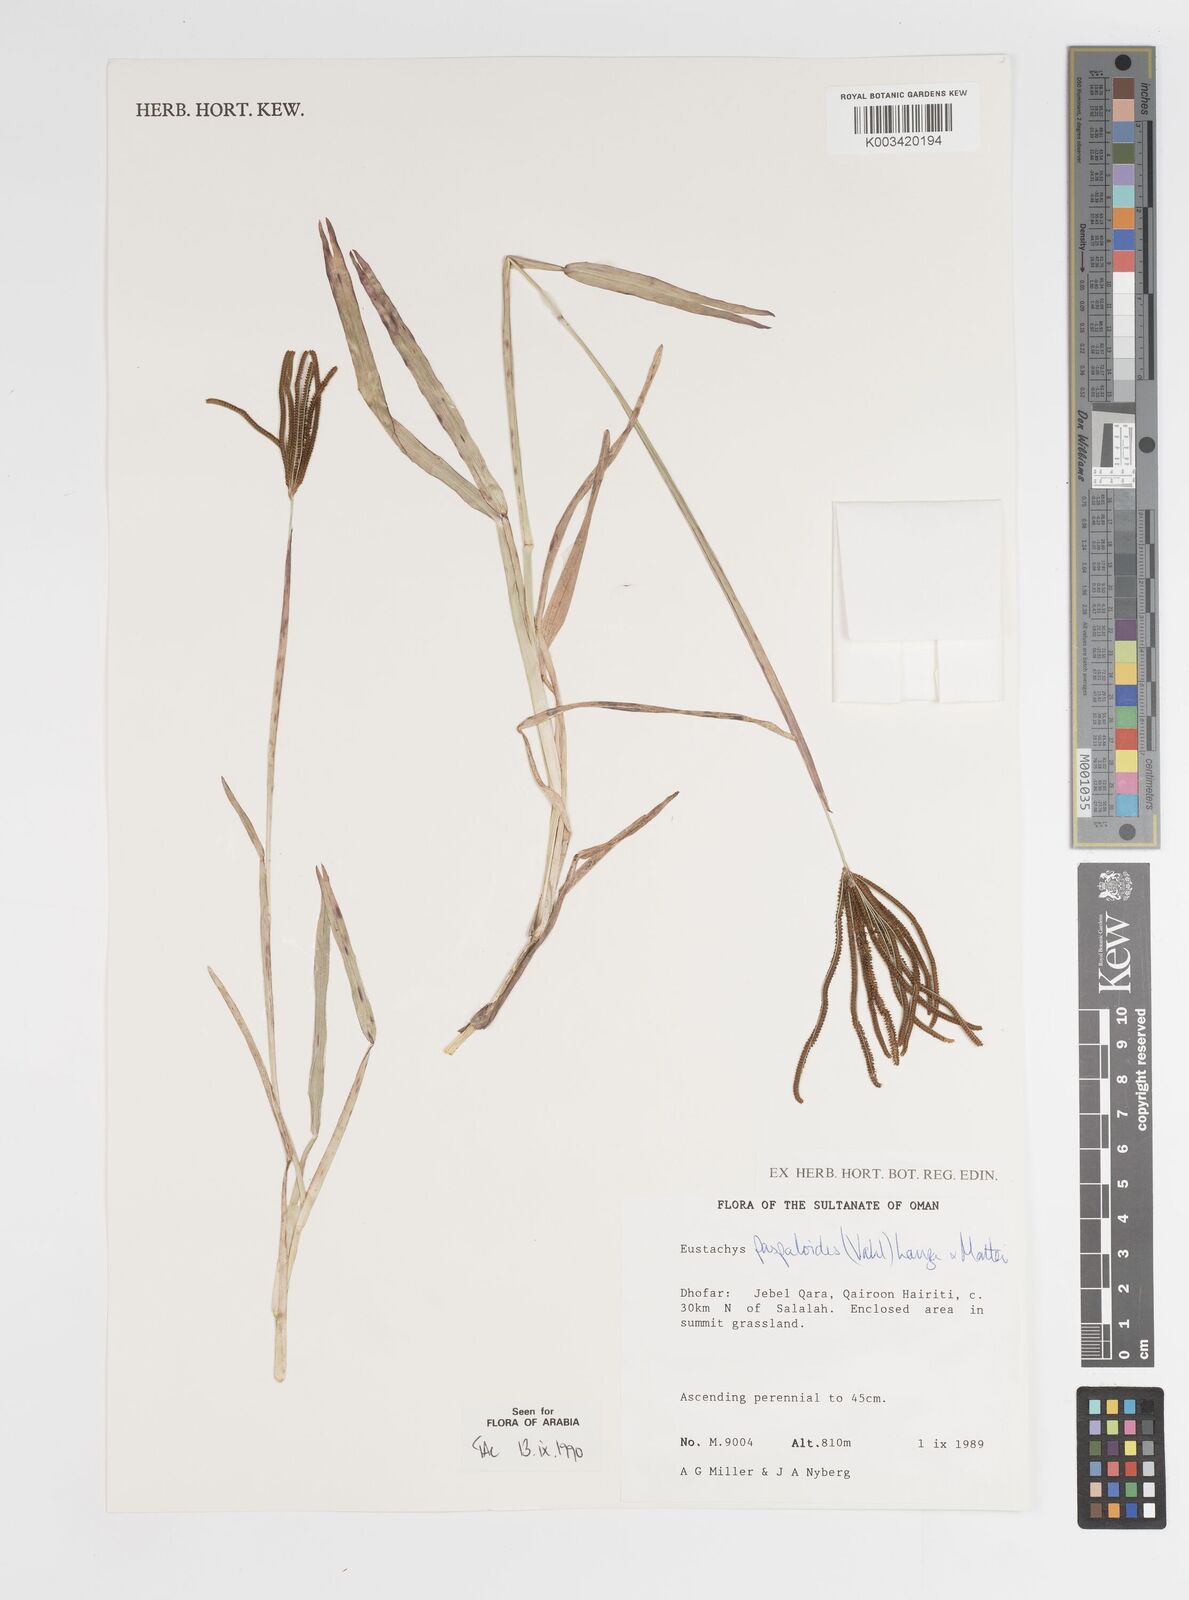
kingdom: Plantae
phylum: Tracheophyta
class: Liliopsida
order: Poales
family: Poaceae
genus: Eustachys
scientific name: Eustachys paspaloides
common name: Caribbean fingergrass
